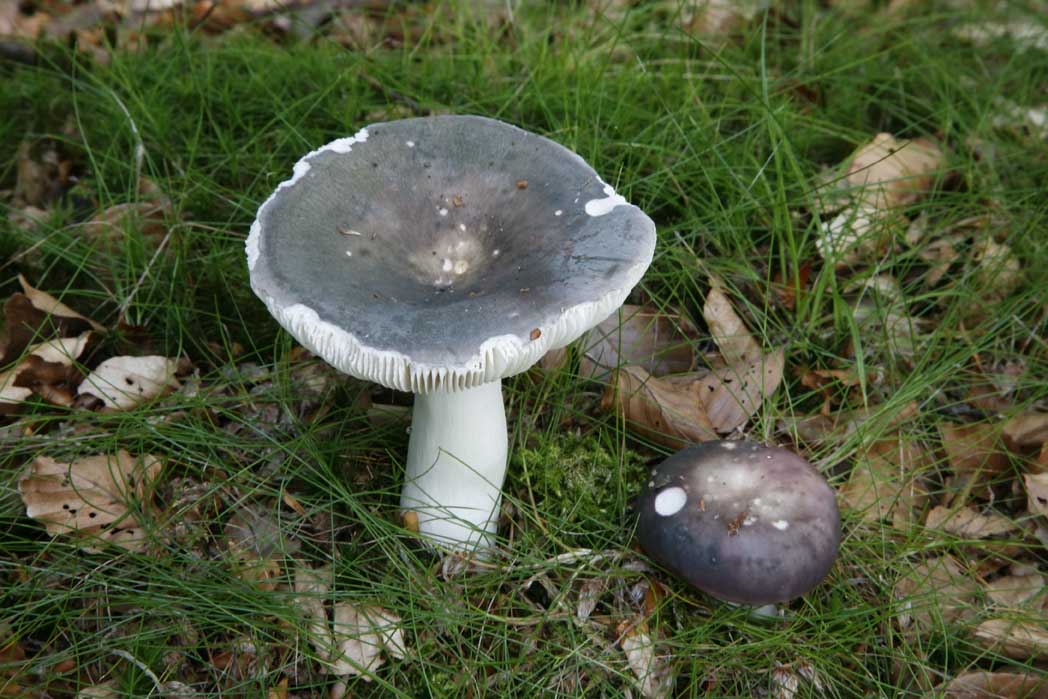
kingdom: Fungi
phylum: Basidiomycota
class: Agaricomycetes
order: Russulales
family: Russulaceae
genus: Russula
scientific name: Russula cyanoxantha
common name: broget skørhat
